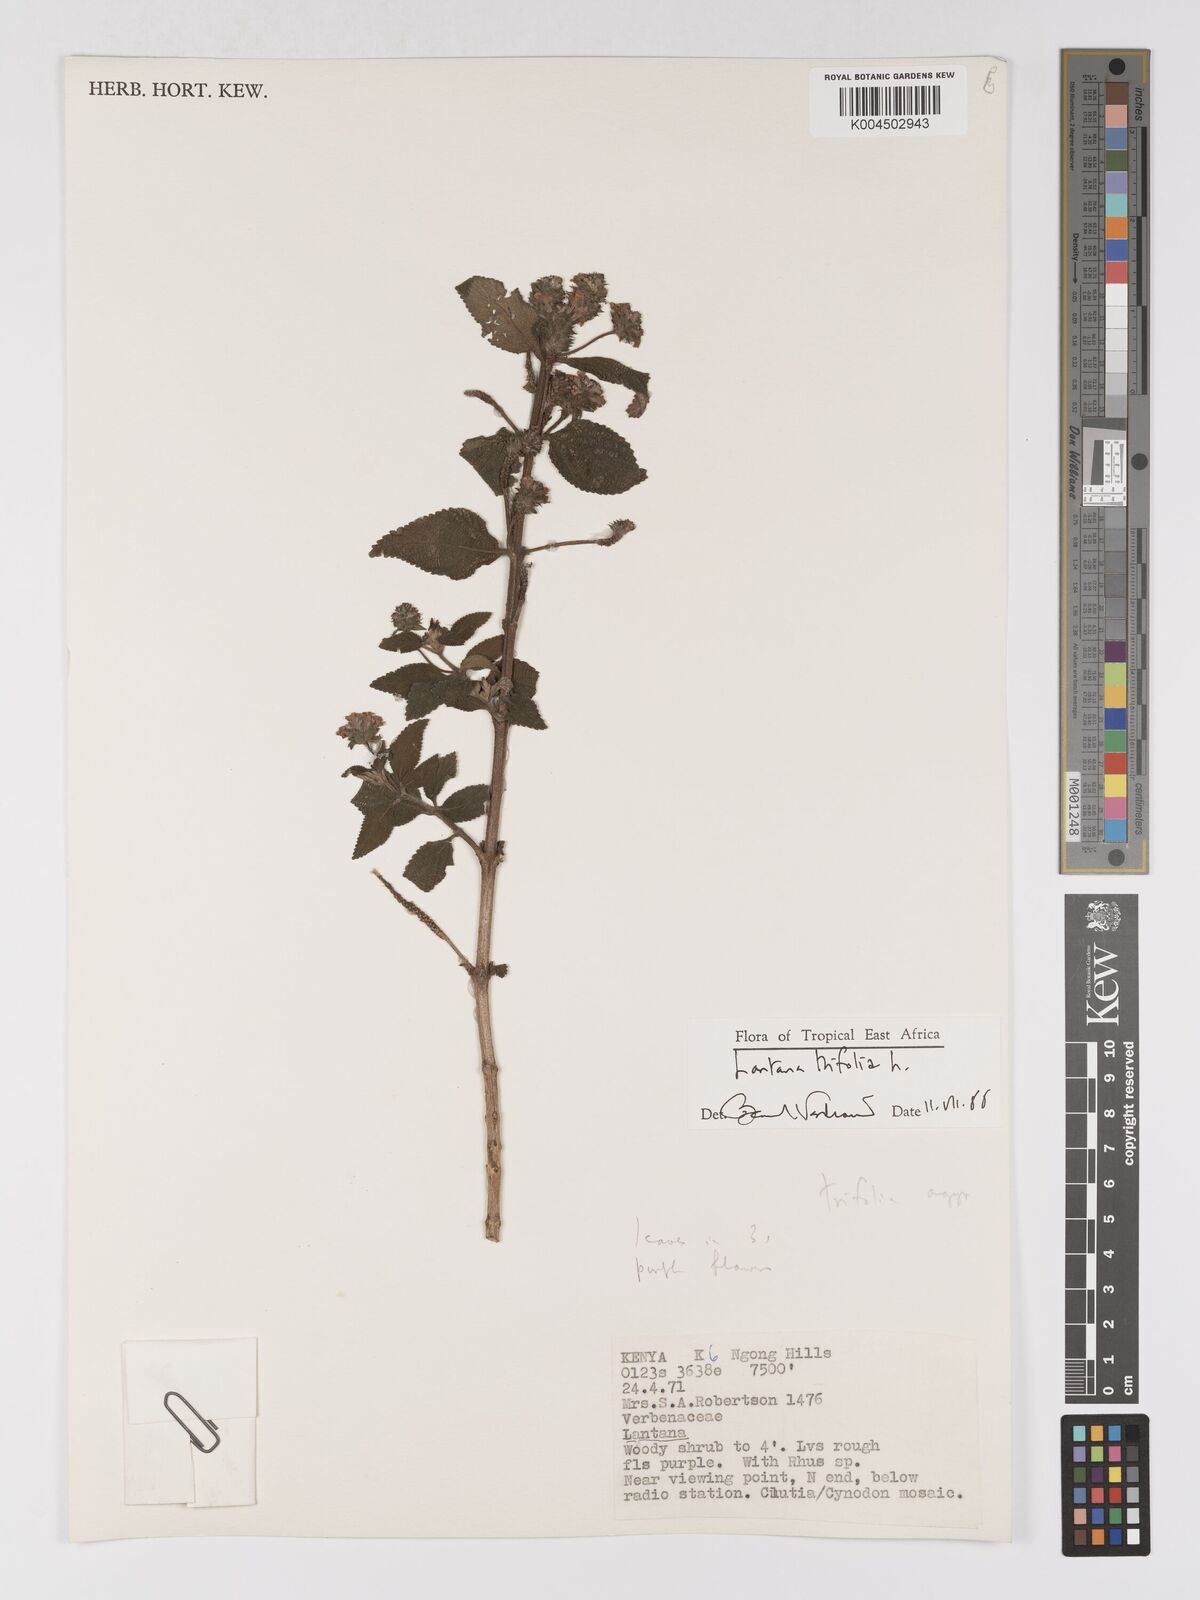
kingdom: Plantae
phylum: Tracheophyta
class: Magnoliopsida
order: Lamiales
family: Verbenaceae
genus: Lantana
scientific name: Lantana trifolia
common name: Sweet-sage
